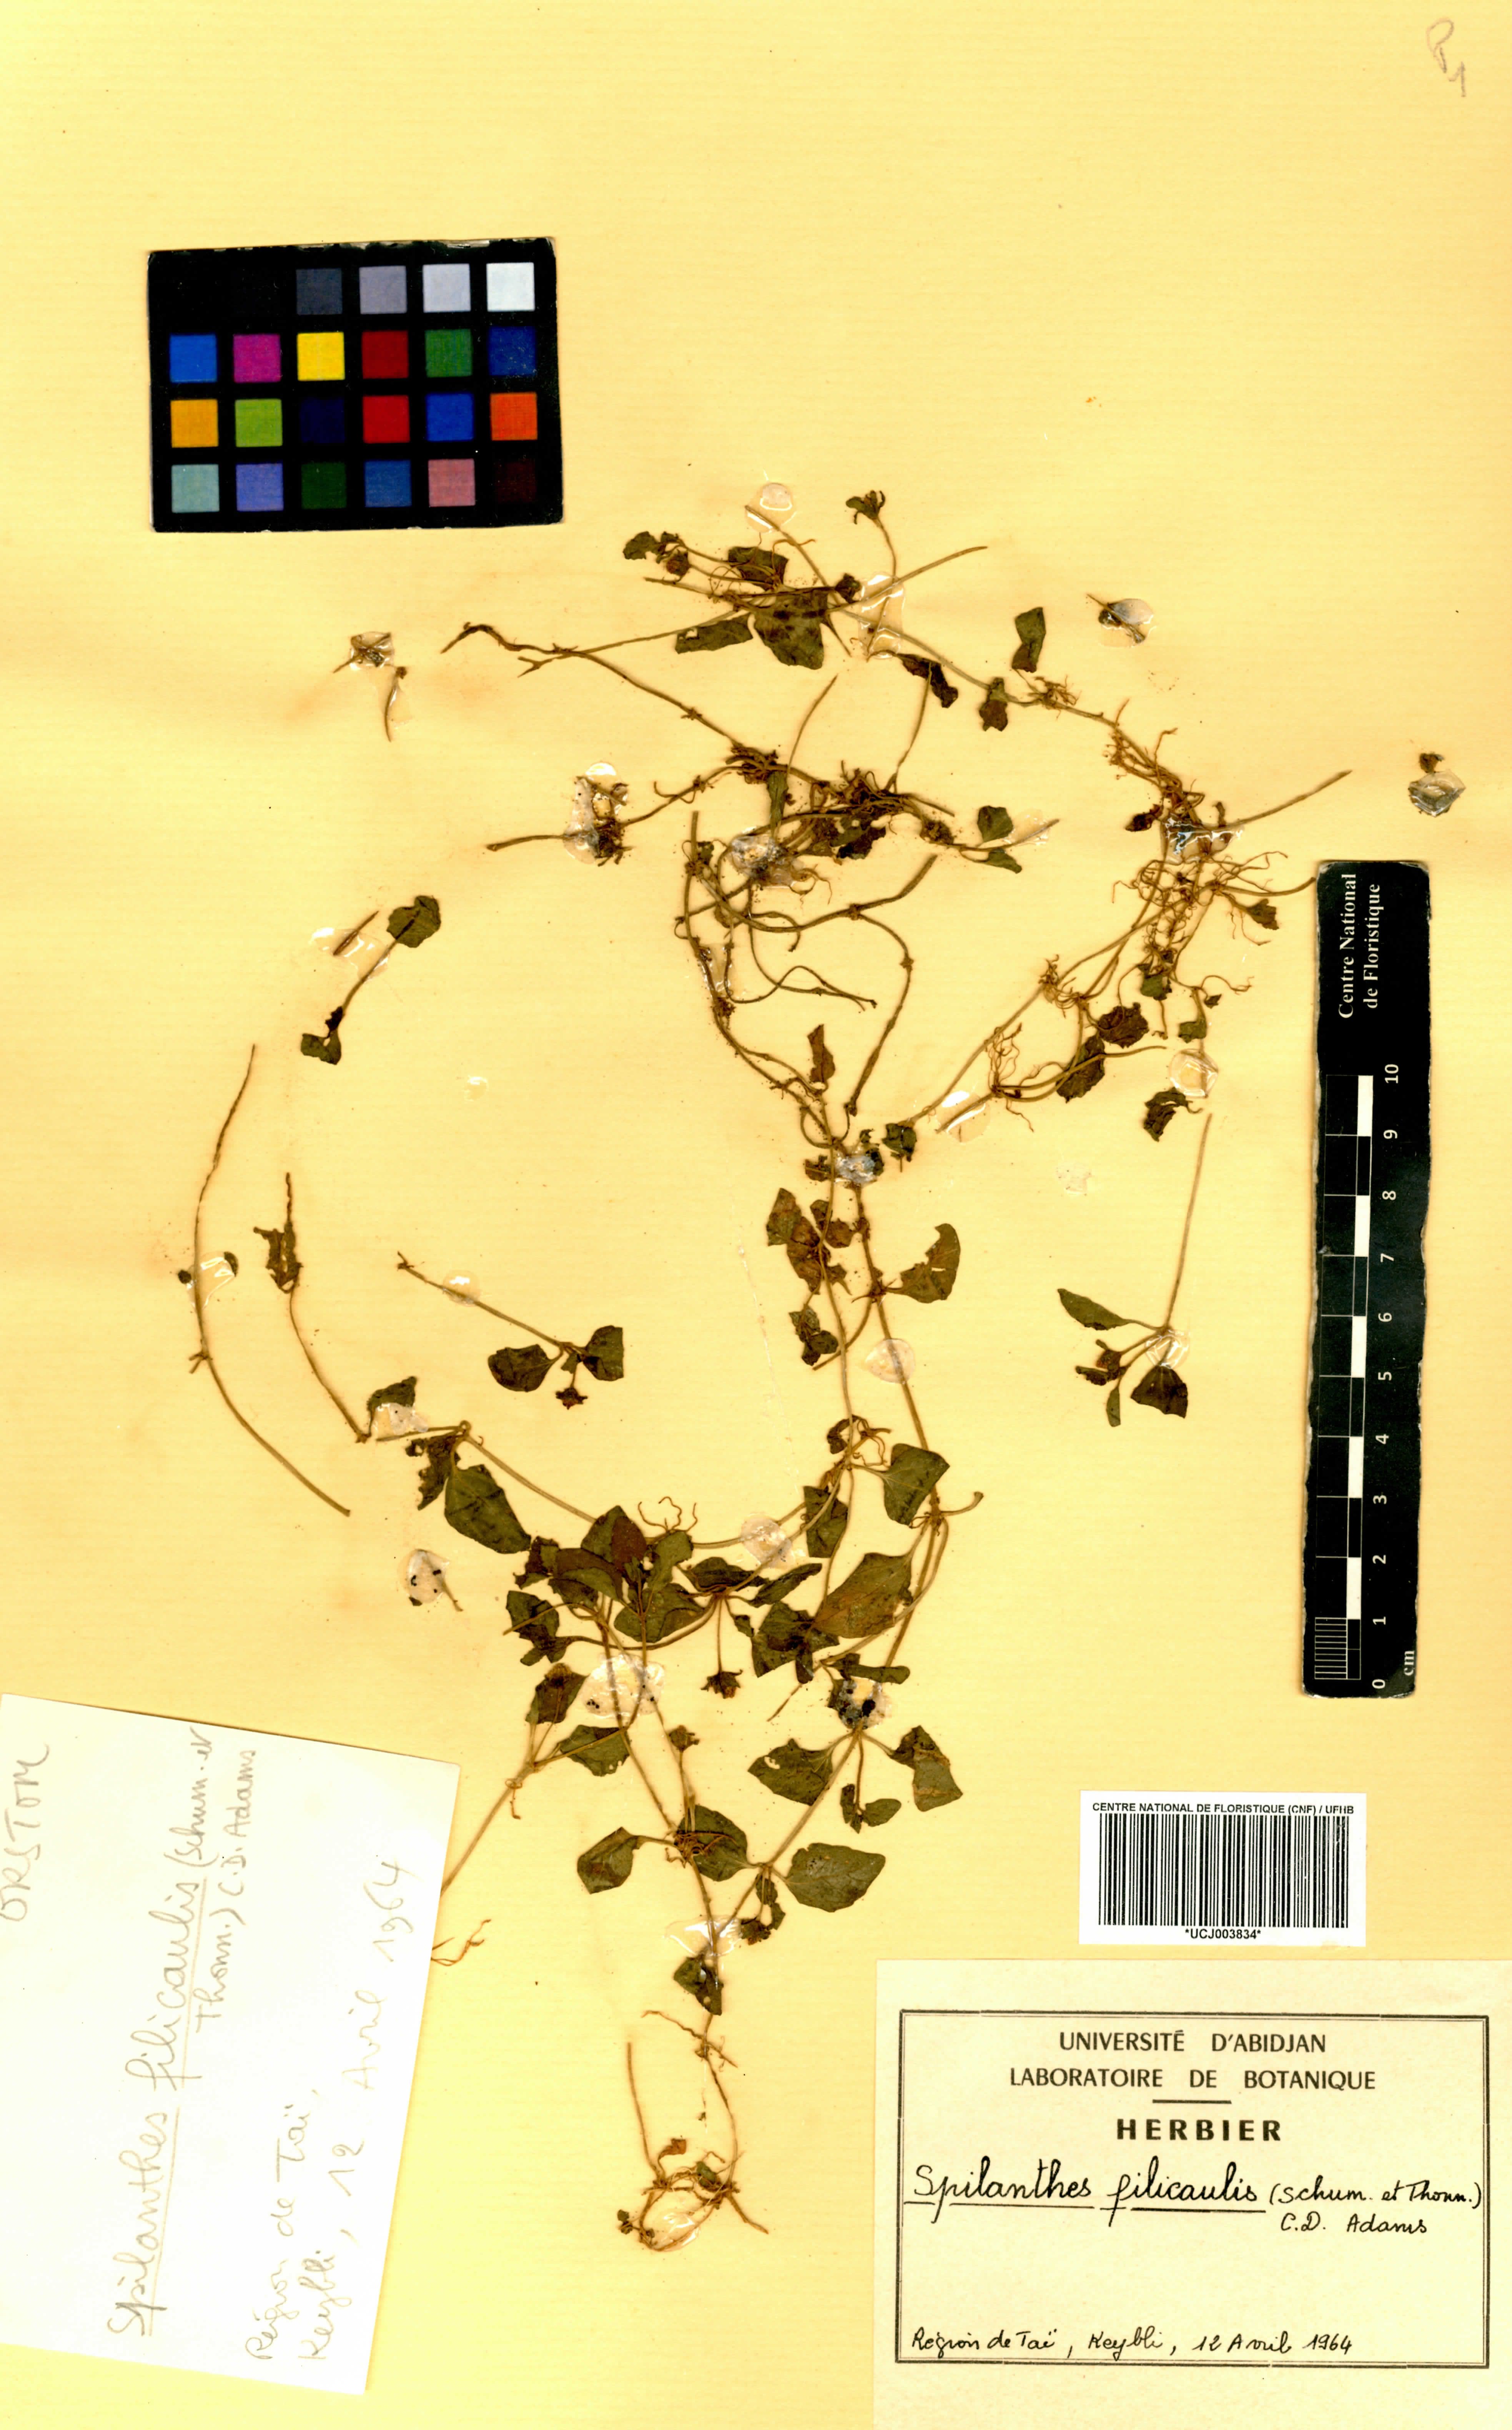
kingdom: Plantae
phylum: Tracheophyta
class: Magnoliopsida
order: Asterales
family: Asteraceae
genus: Acmella
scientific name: Acmella caulirhiza
